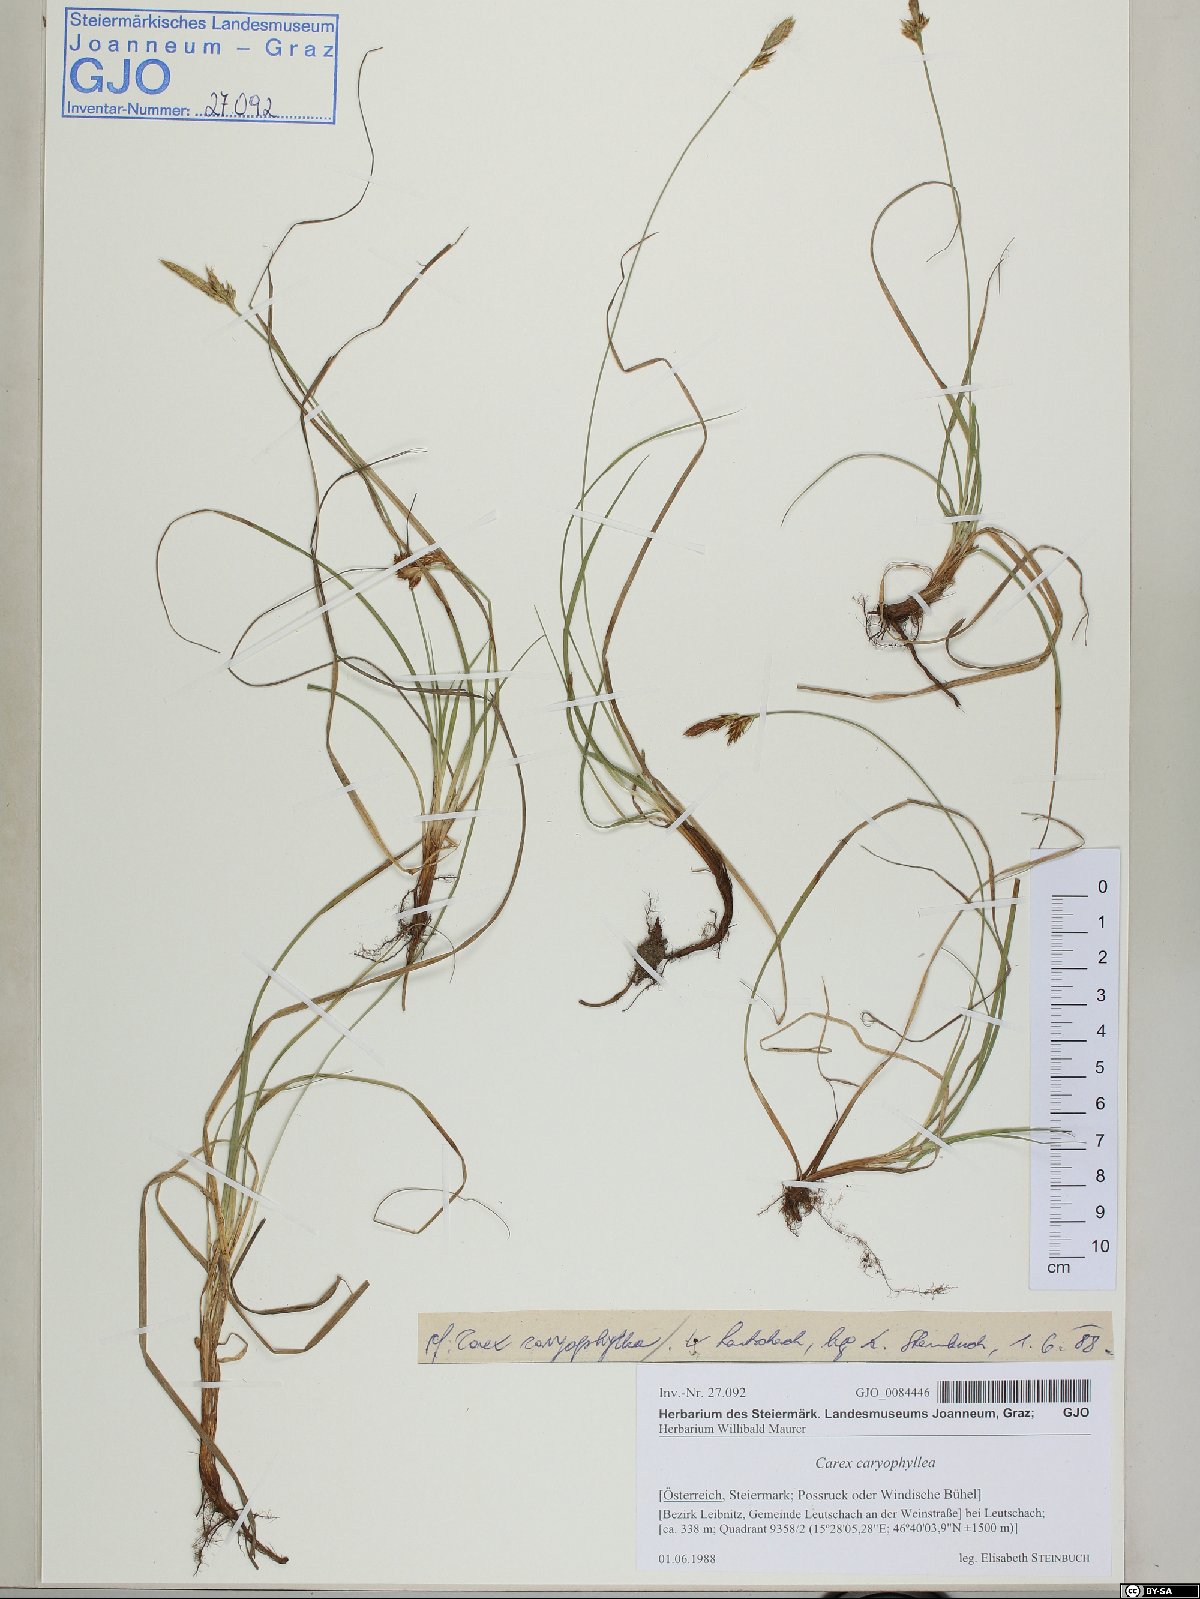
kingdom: Plantae
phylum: Tracheophyta
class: Liliopsida
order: Poales
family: Cyperaceae
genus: Carex
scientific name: Carex caryophyllea
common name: Spring sedge
